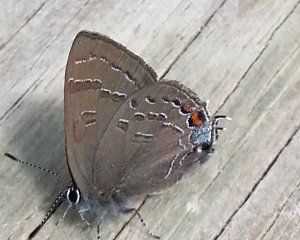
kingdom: Animalia
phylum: Arthropoda
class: Insecta
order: Lepidoptera
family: Lycaenidae
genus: Satyrium
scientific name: Satyrium calanus
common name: Banded Hairstreak
